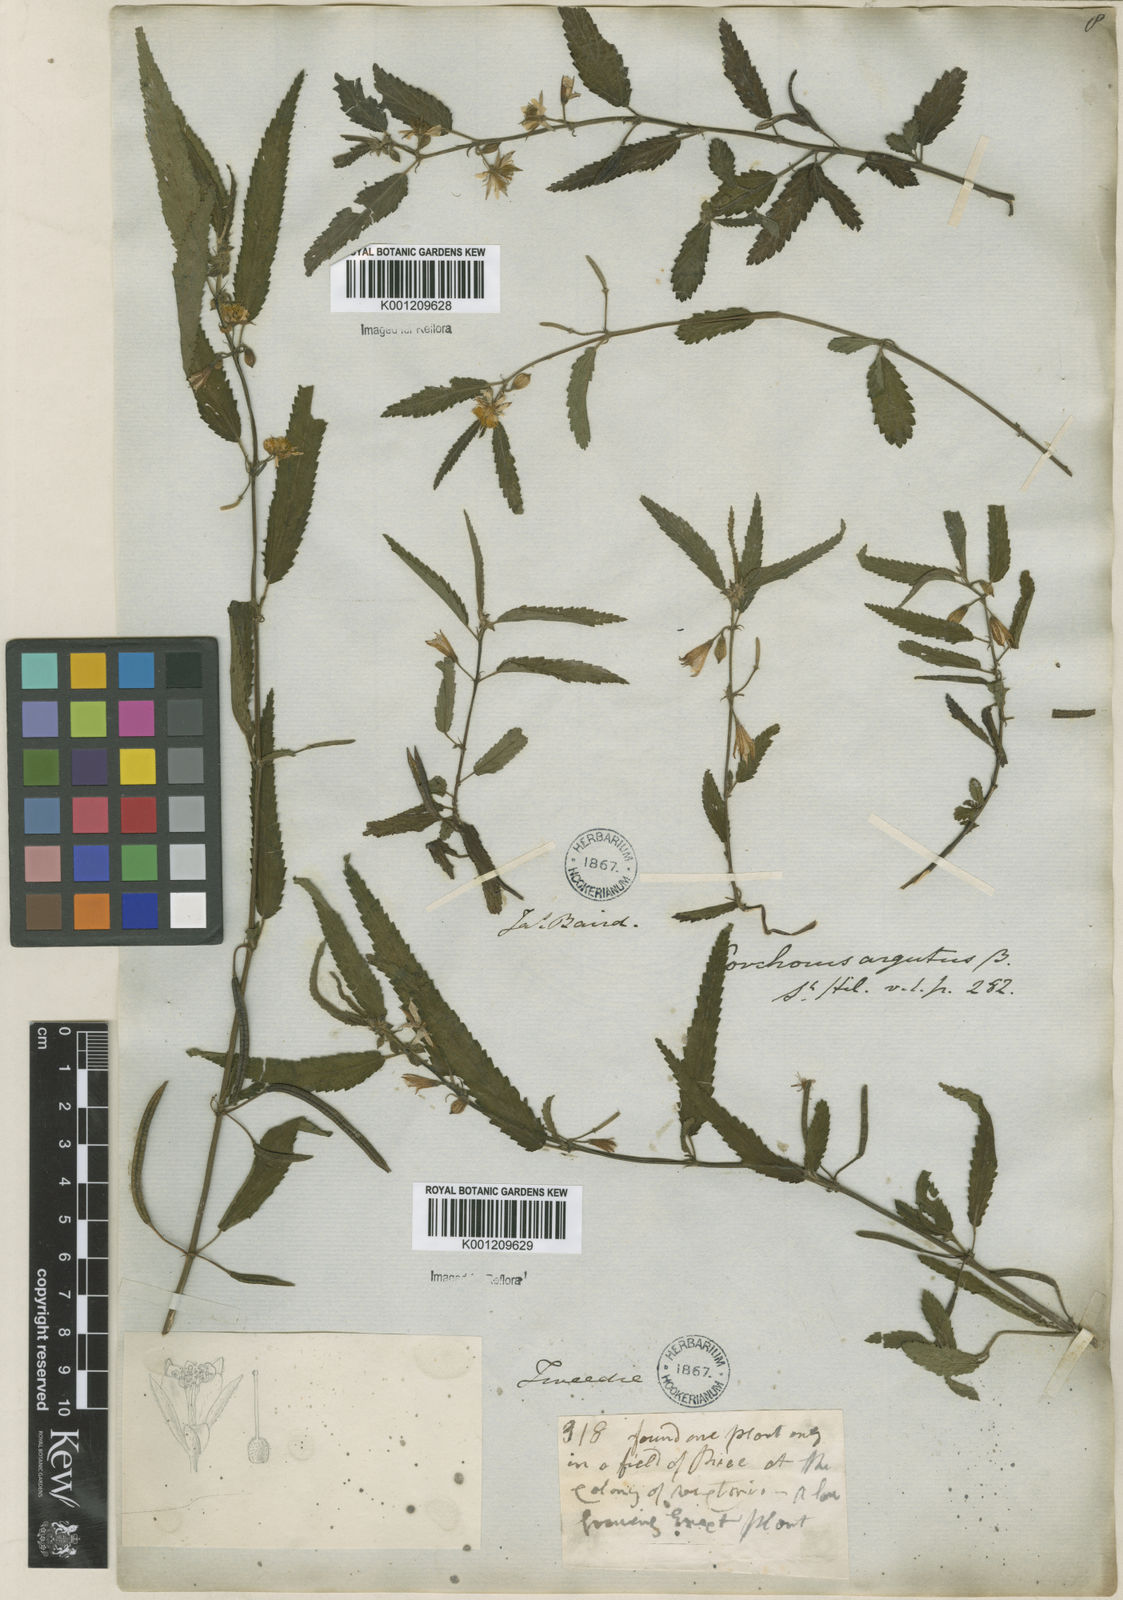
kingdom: Plantae
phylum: Tracheophyta
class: Magnoliopsida
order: Malvales
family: Malvaceae
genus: Corchorus
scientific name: Corchorus argutus
